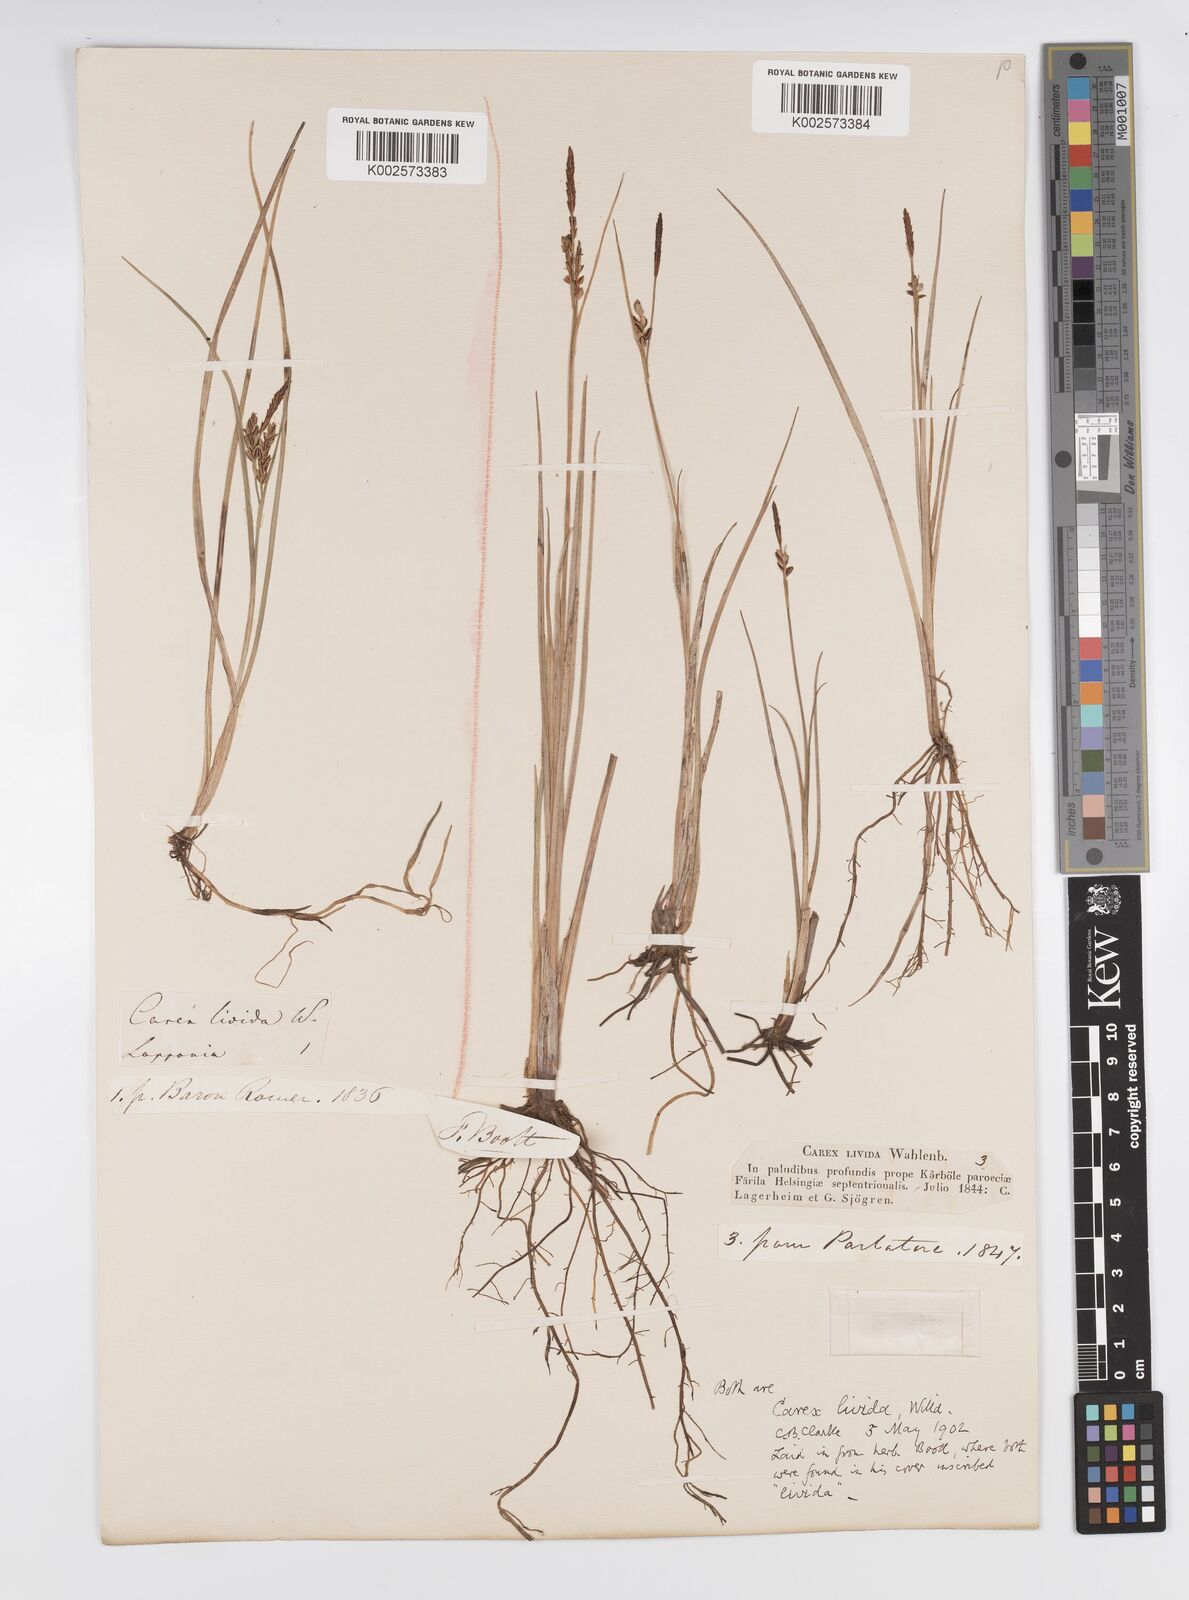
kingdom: Plantae
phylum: Tracheophyta
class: Liliopsida
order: Poales
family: Cyperaceae
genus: Carex
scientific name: Carex livida
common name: Livid sedge
